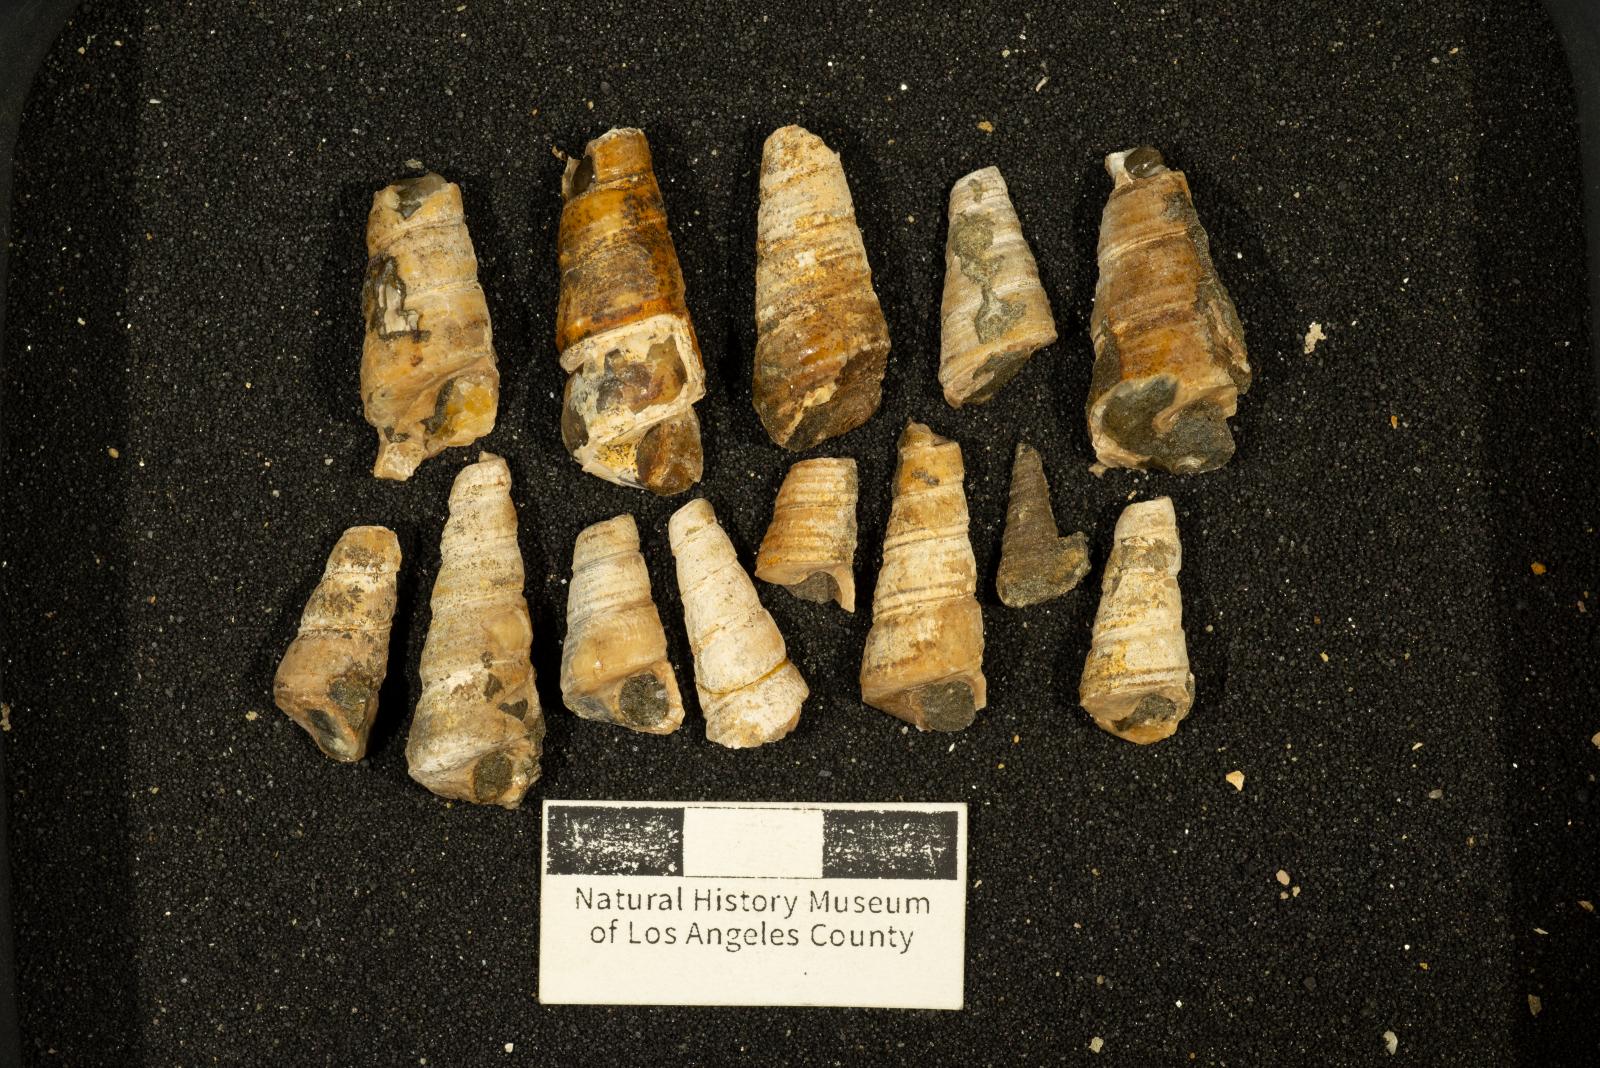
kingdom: Animalia
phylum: Mollusca
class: Gastropoda
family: Turritellidae
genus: Turritella
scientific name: Turritella chicoensis
